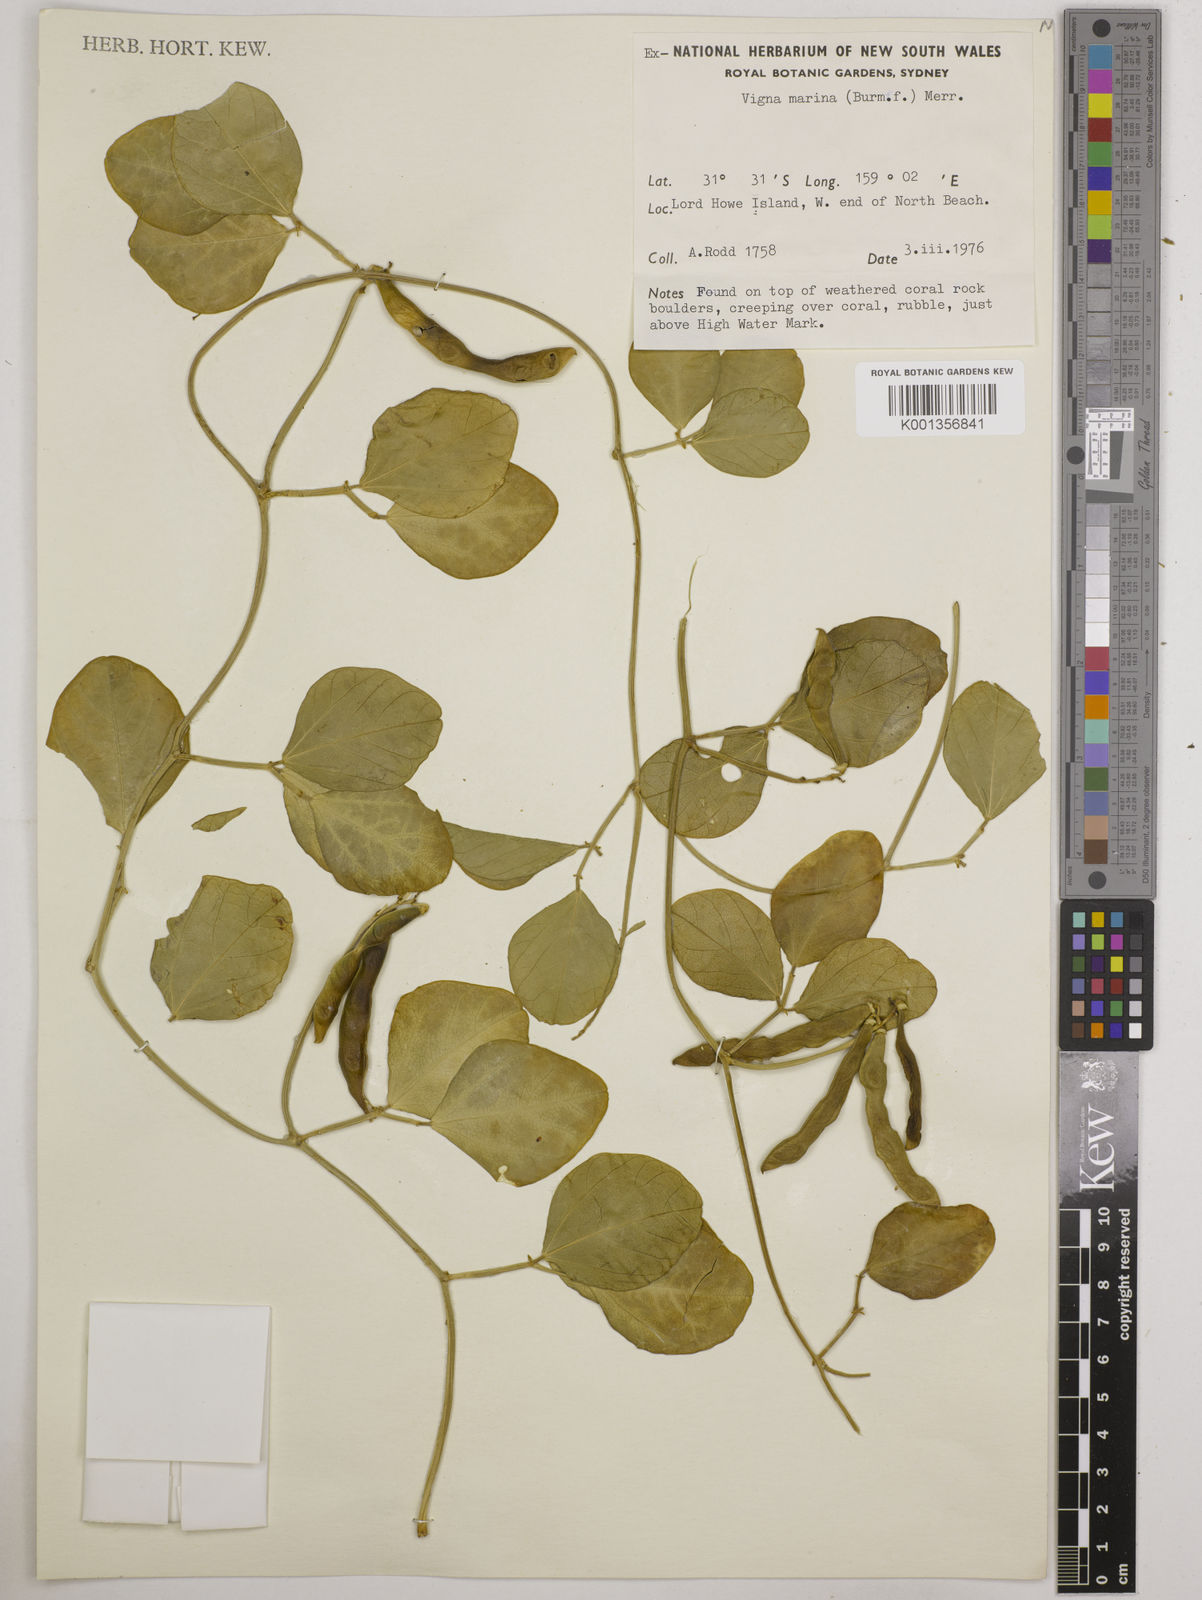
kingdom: Plantae
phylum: Tracheophyta
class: Magnoliopsida
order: Fabales
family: Fabaceae
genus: Vigna
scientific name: Vigna marina
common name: Dune-bean
